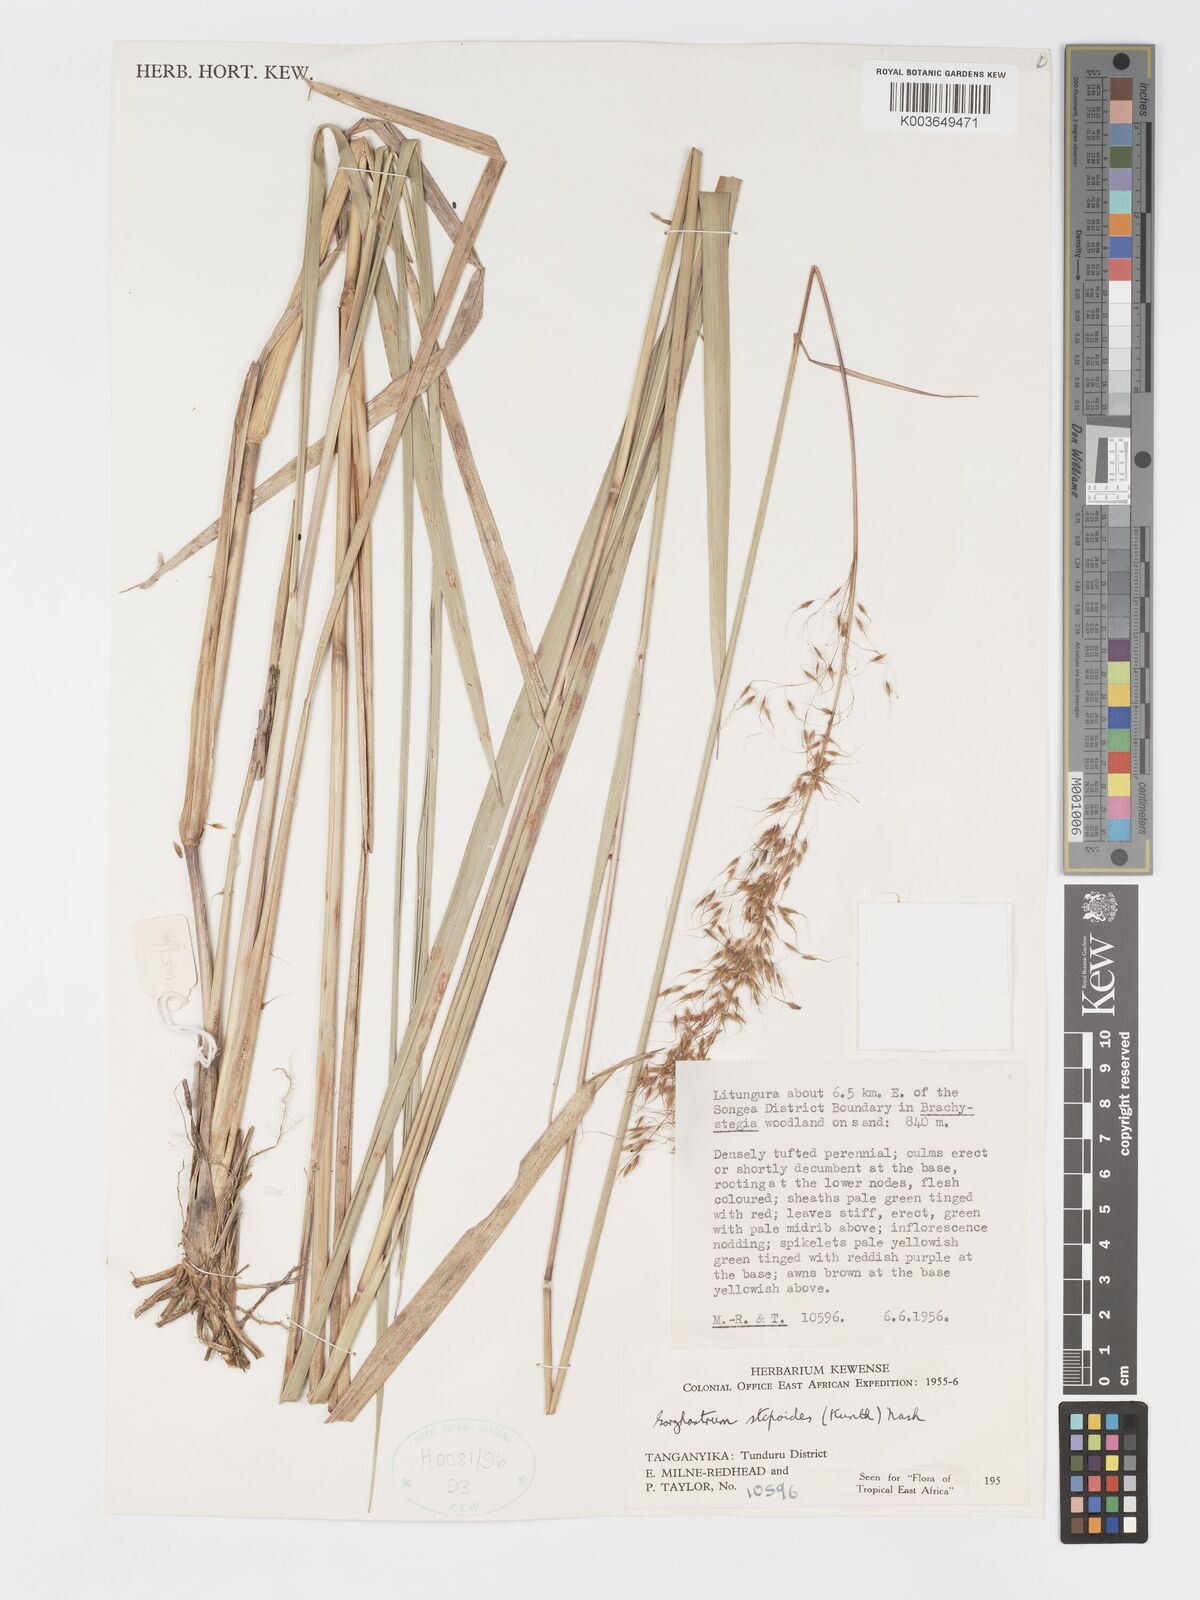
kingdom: Plantae
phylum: Tracheophyta
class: Liliopsida
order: Poales
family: Poaceae
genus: Sorghastrum
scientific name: Sorghastrum stipoides
